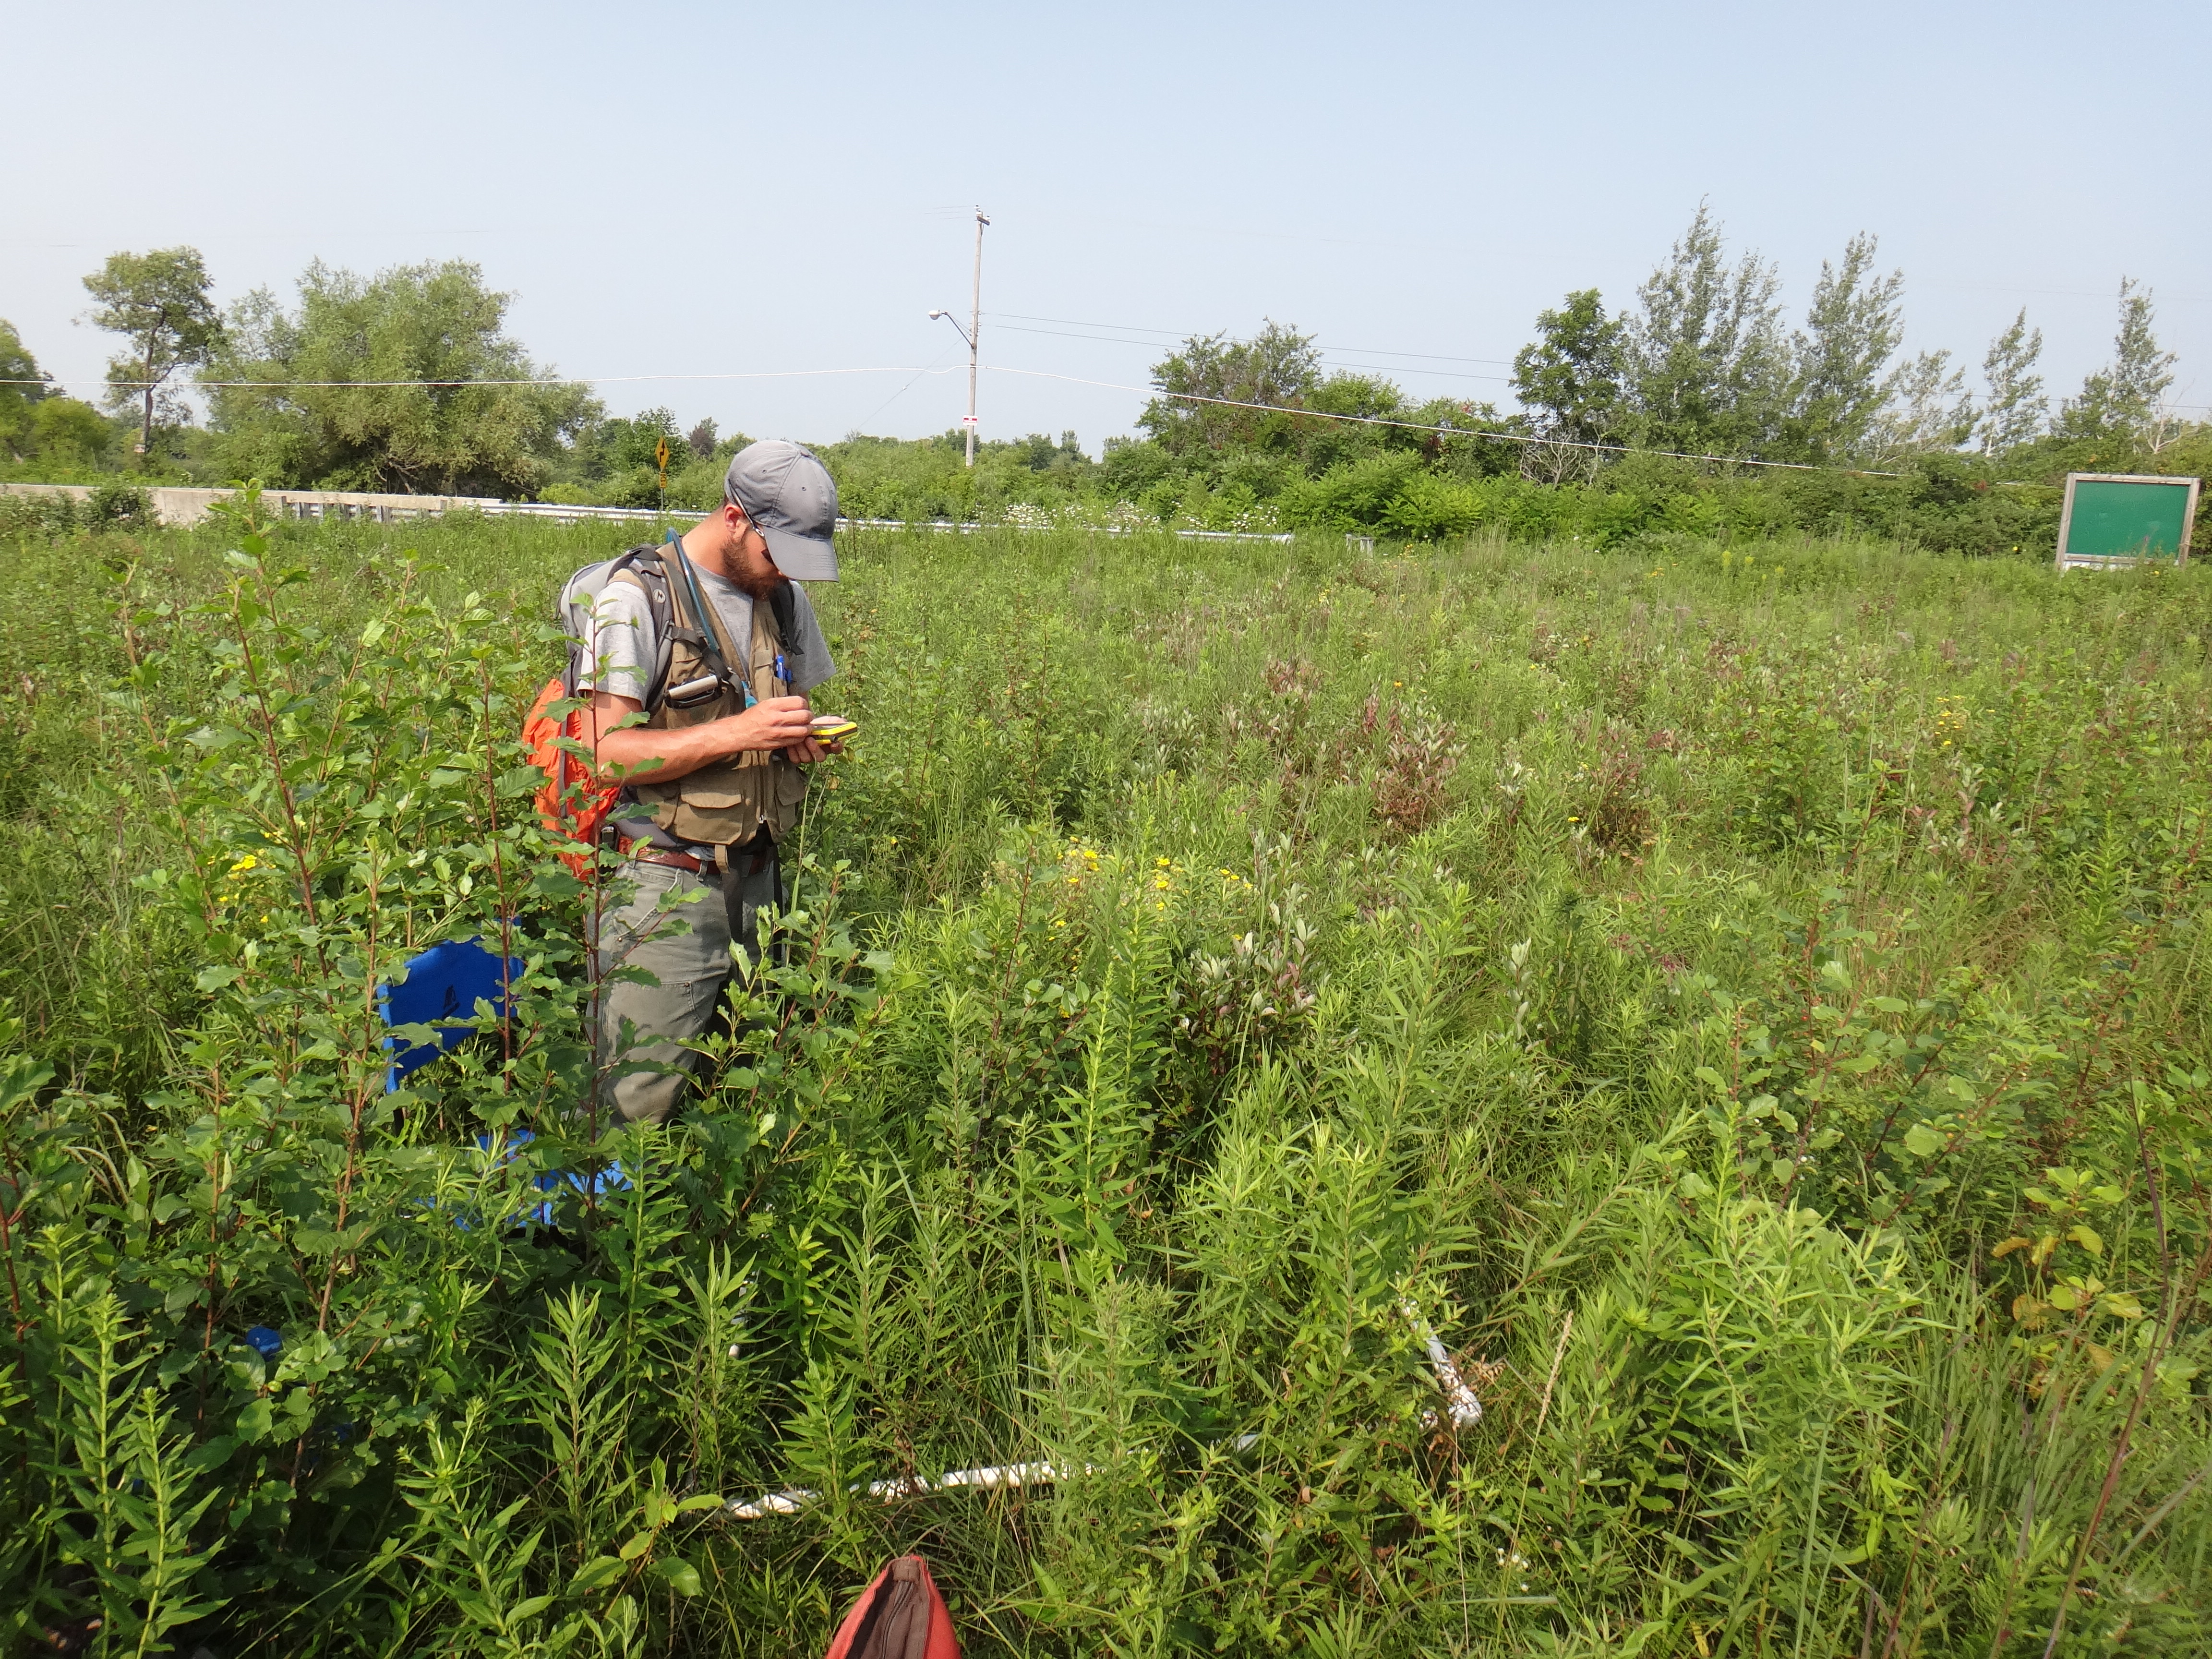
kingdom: Plantae
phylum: Tracheophyta
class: Magnoliopsida
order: Asterales
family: Asteraceae
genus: Helianthus
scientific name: Helianthus giganteus
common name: Giant sunflower
